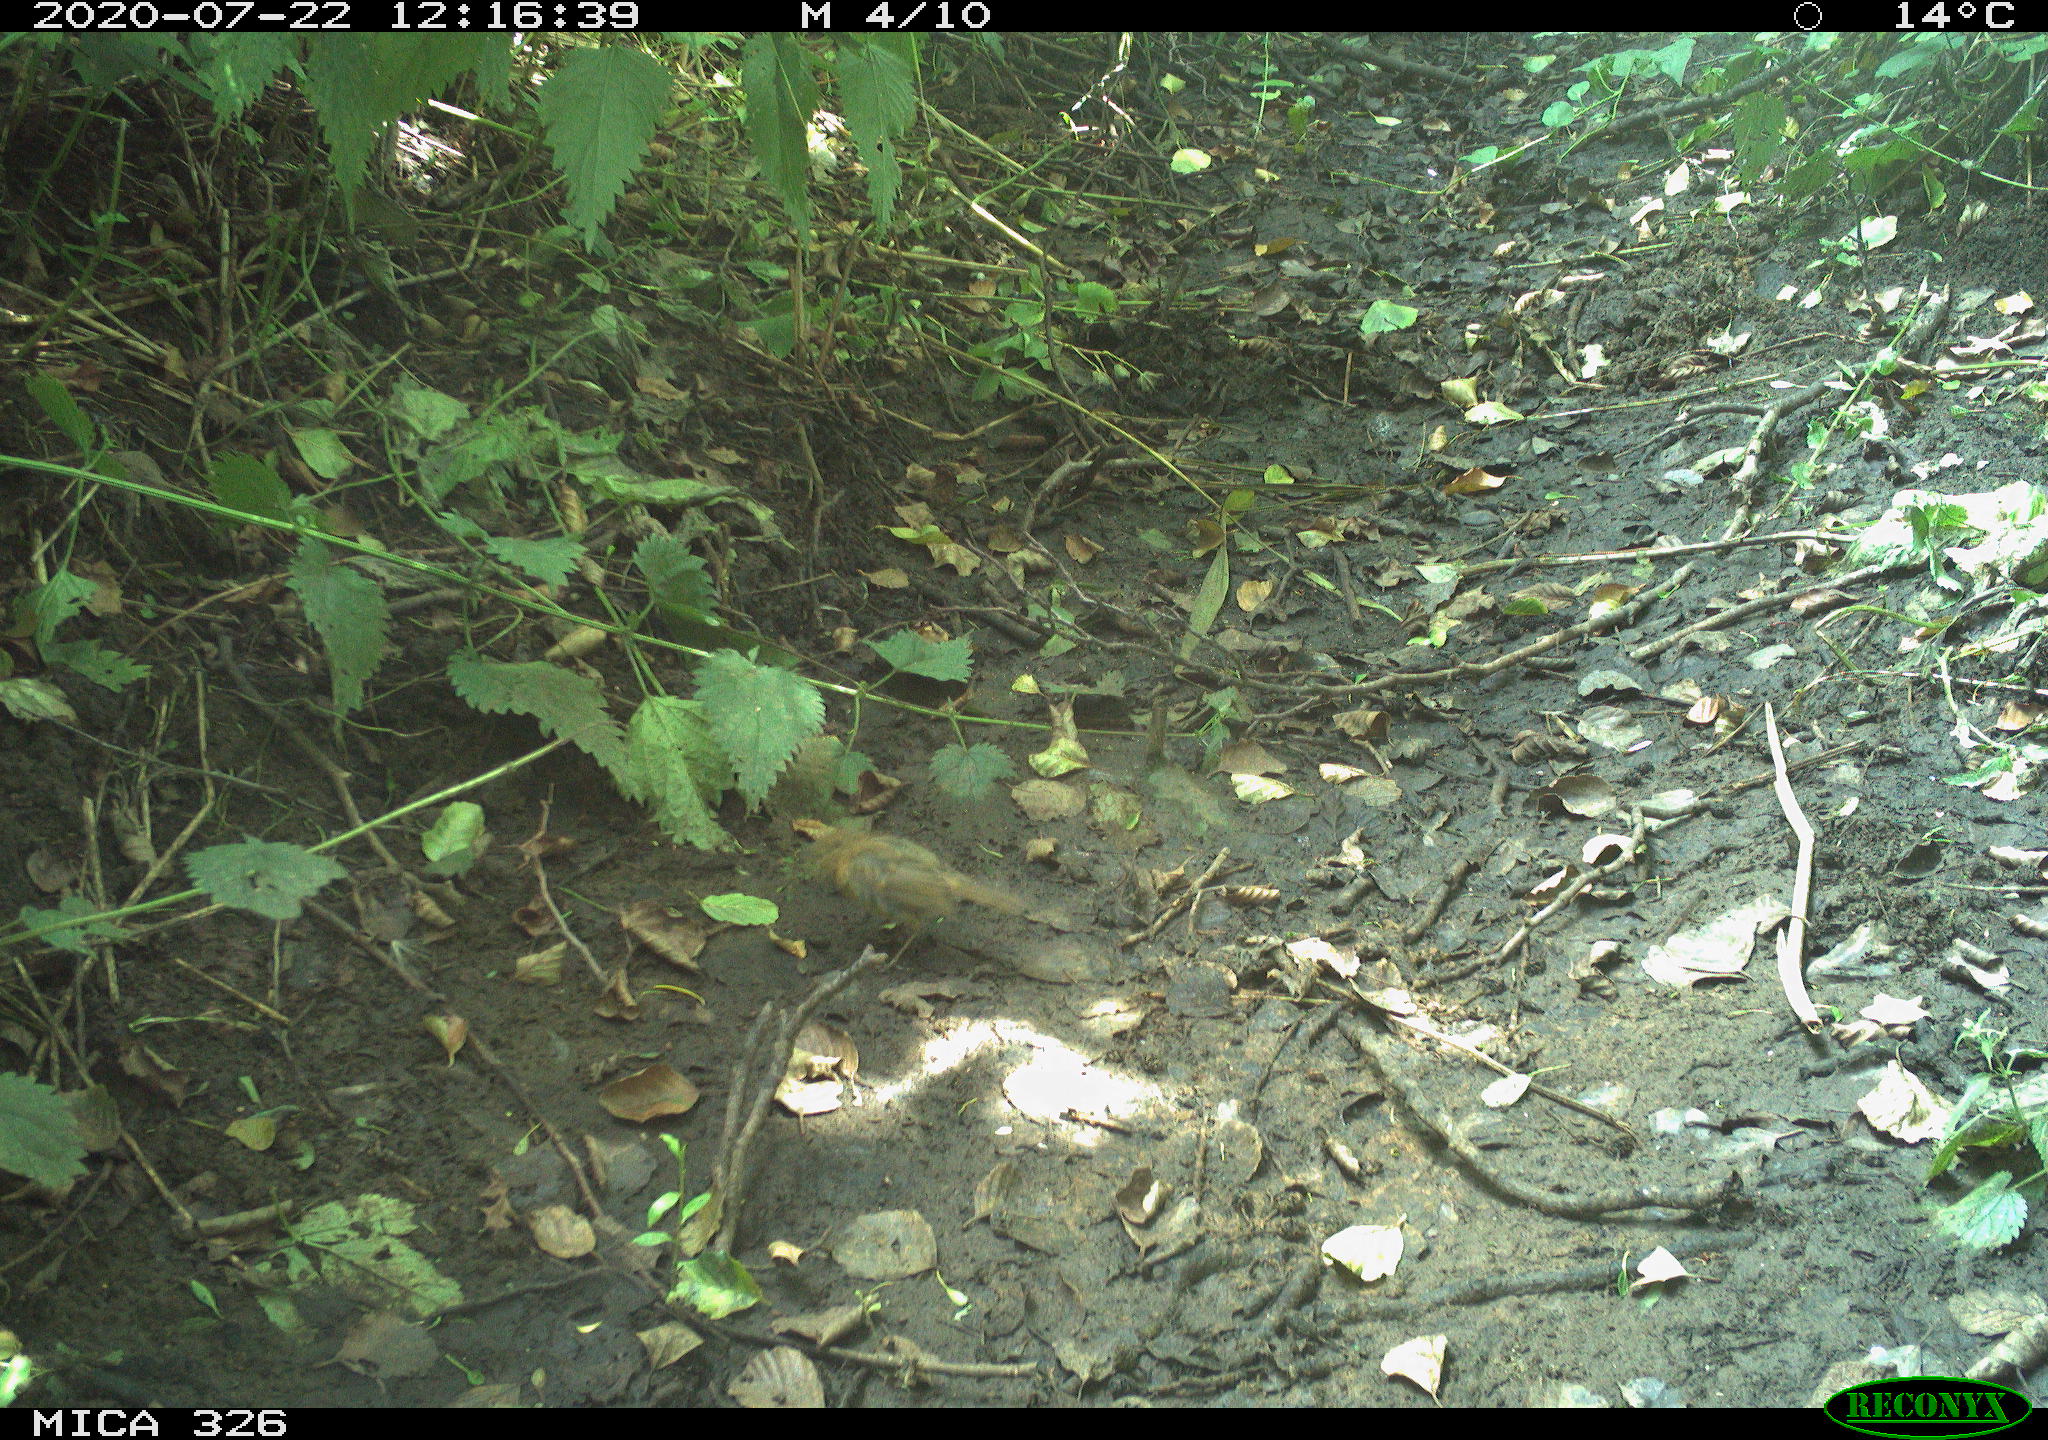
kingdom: Animalia
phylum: Chordata
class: Aves
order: Passeriformes
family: Muscicapidae
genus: Erithacus
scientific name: Erithacus rubecula
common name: European robin
